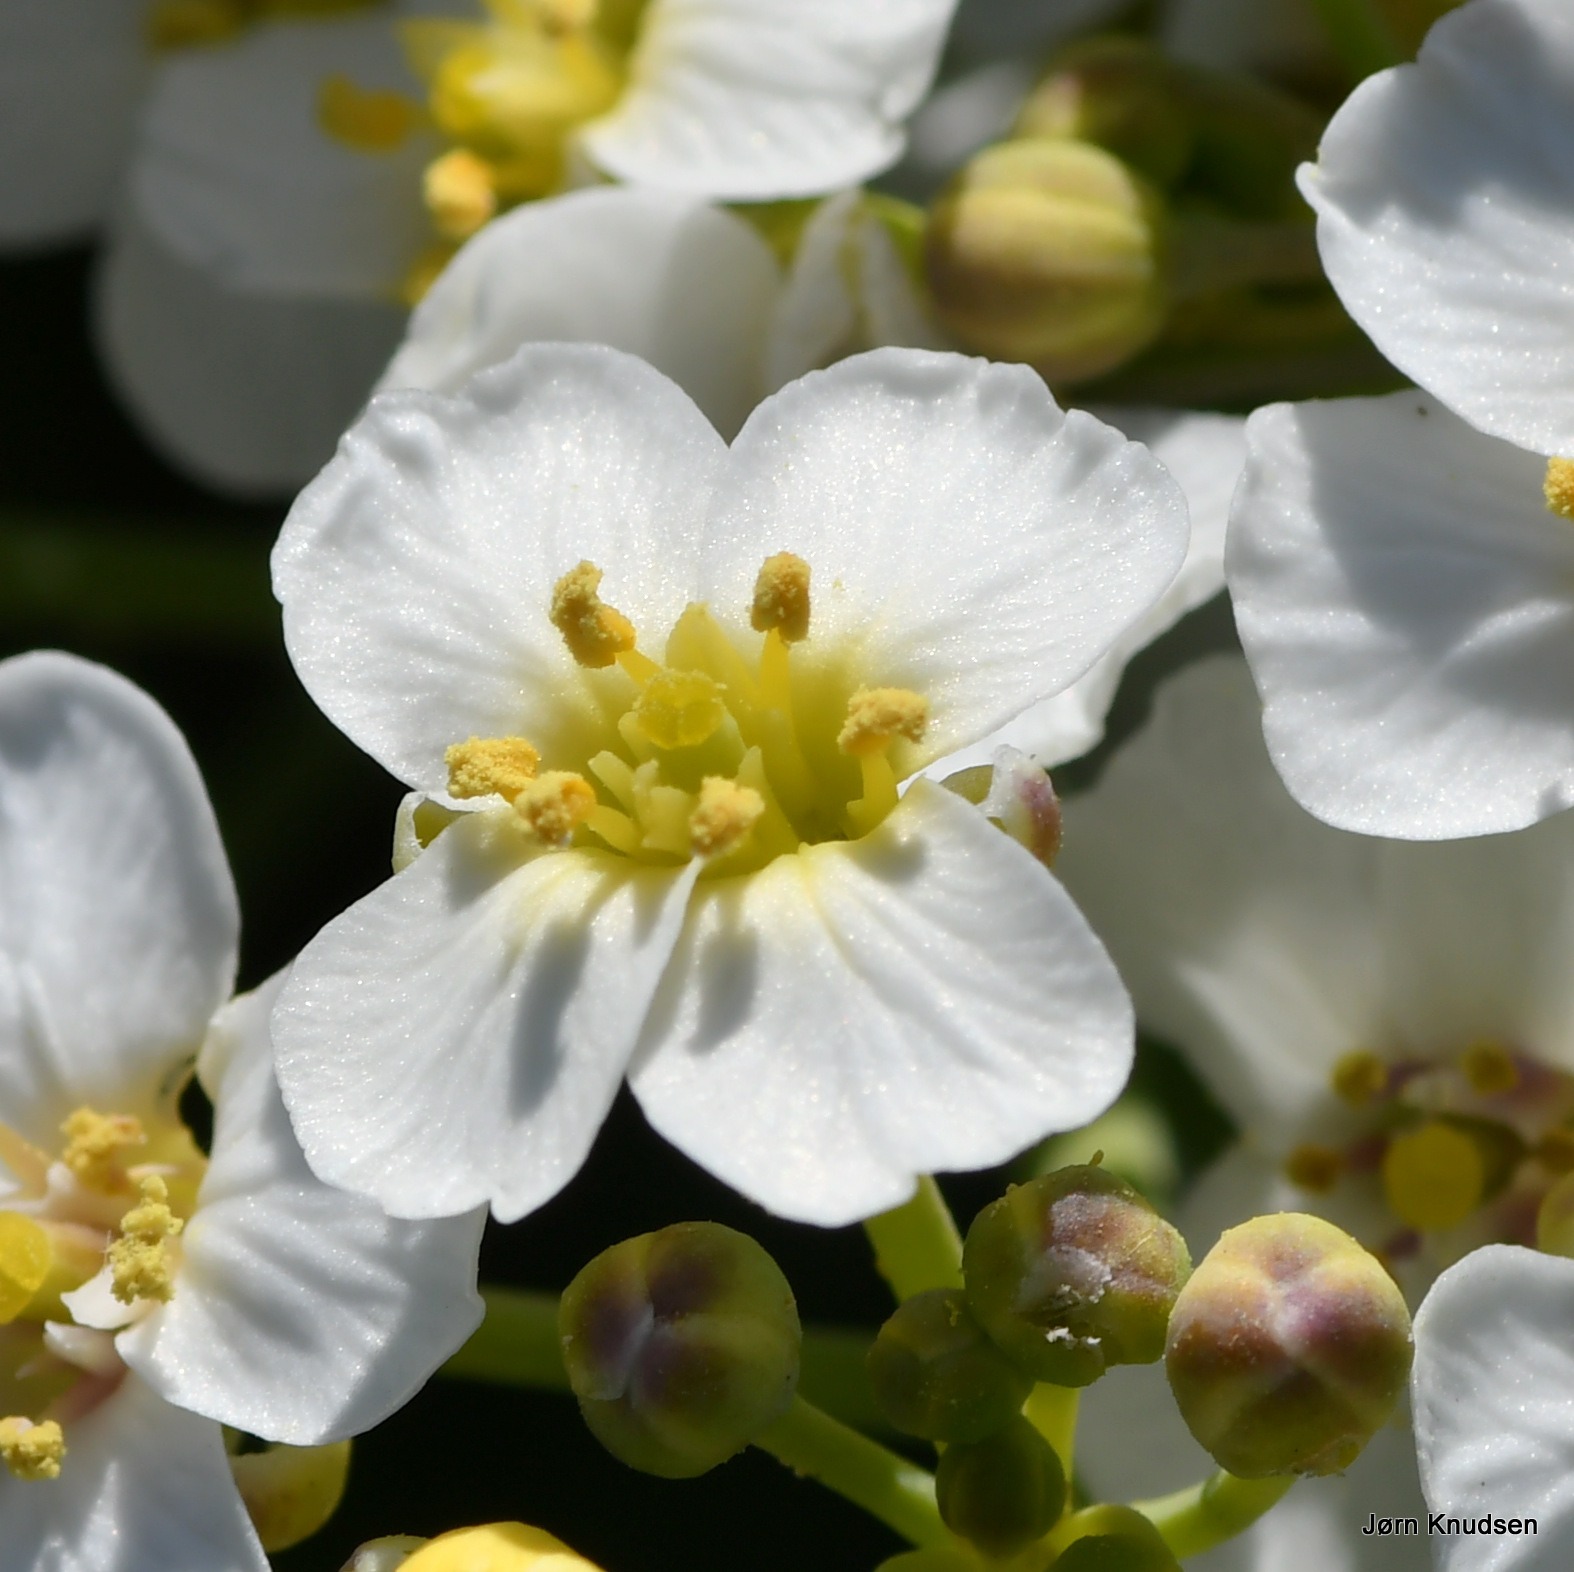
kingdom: Plantae
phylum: Tracheophyta
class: Magnoliopsida
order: Brassicales
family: Brassicaceae
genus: Crambe
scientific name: Crambe maritima
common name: Strandkål
